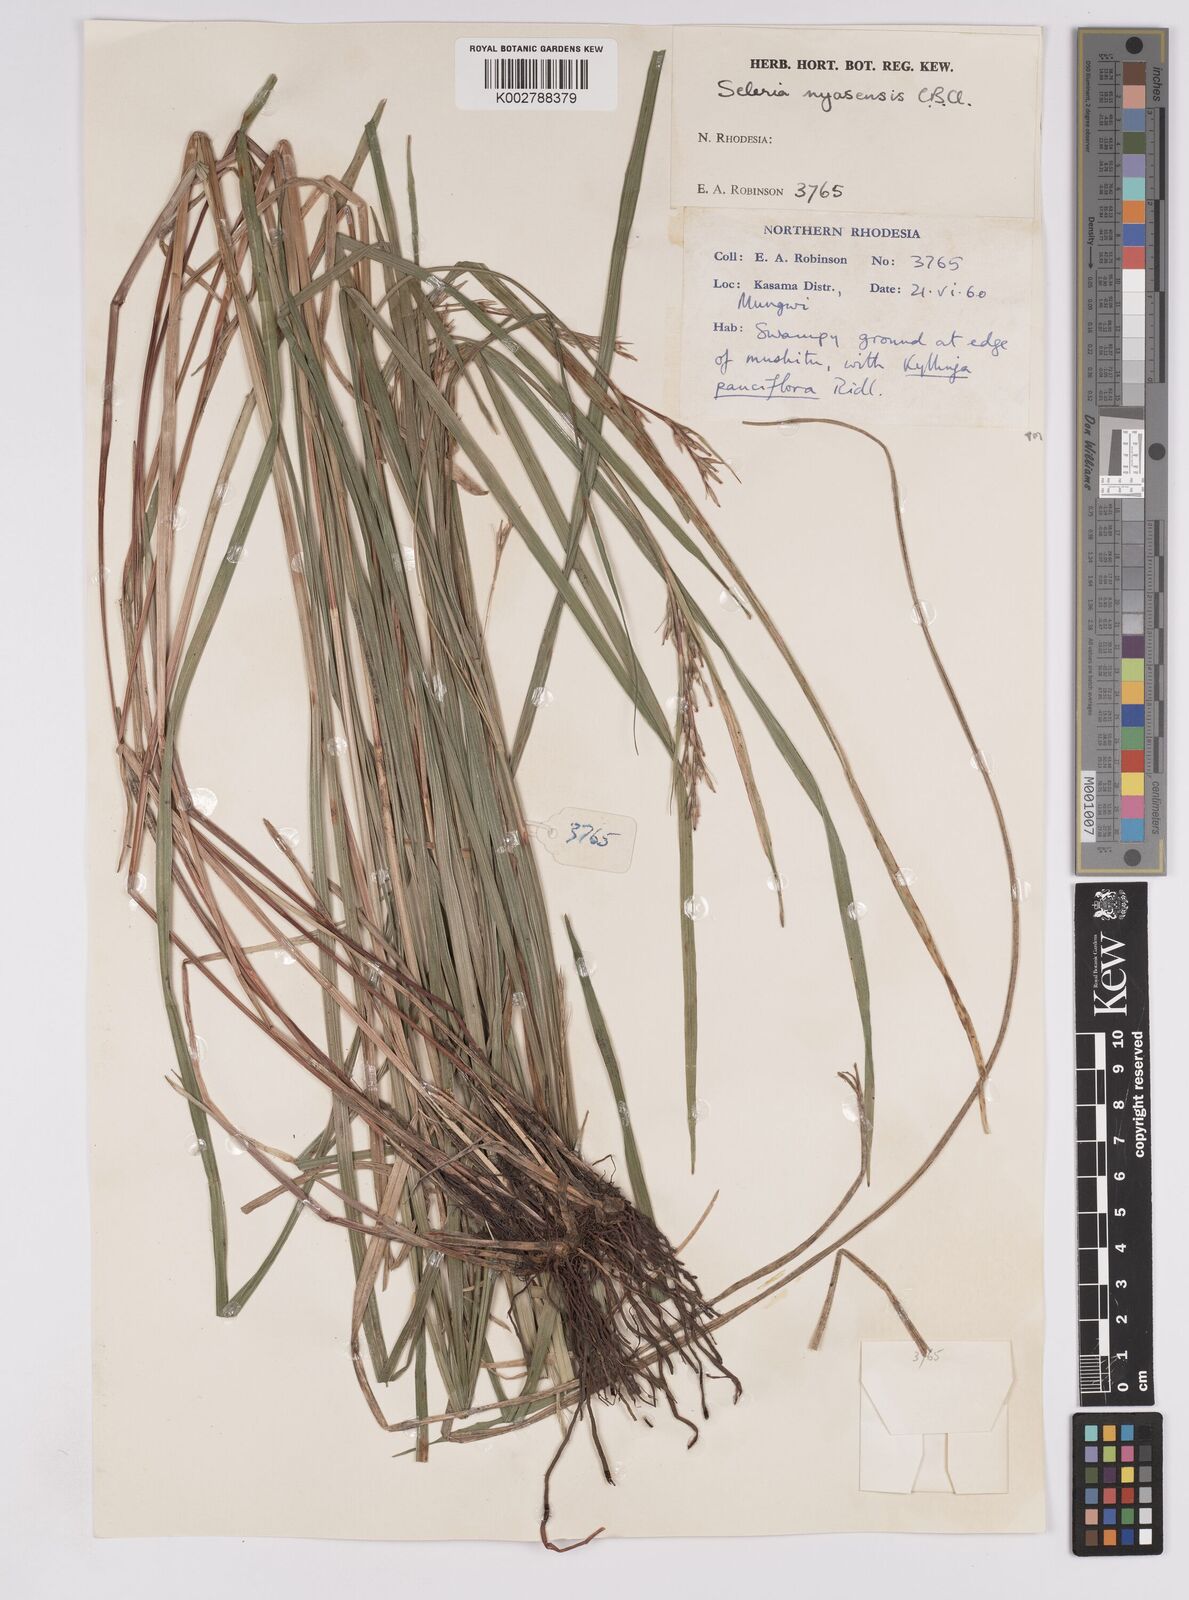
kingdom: Plantae
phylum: Tracheophyta
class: Liliopsida
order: Poales
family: Cyperaceae
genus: Scleria
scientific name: Scleria nyasensis
